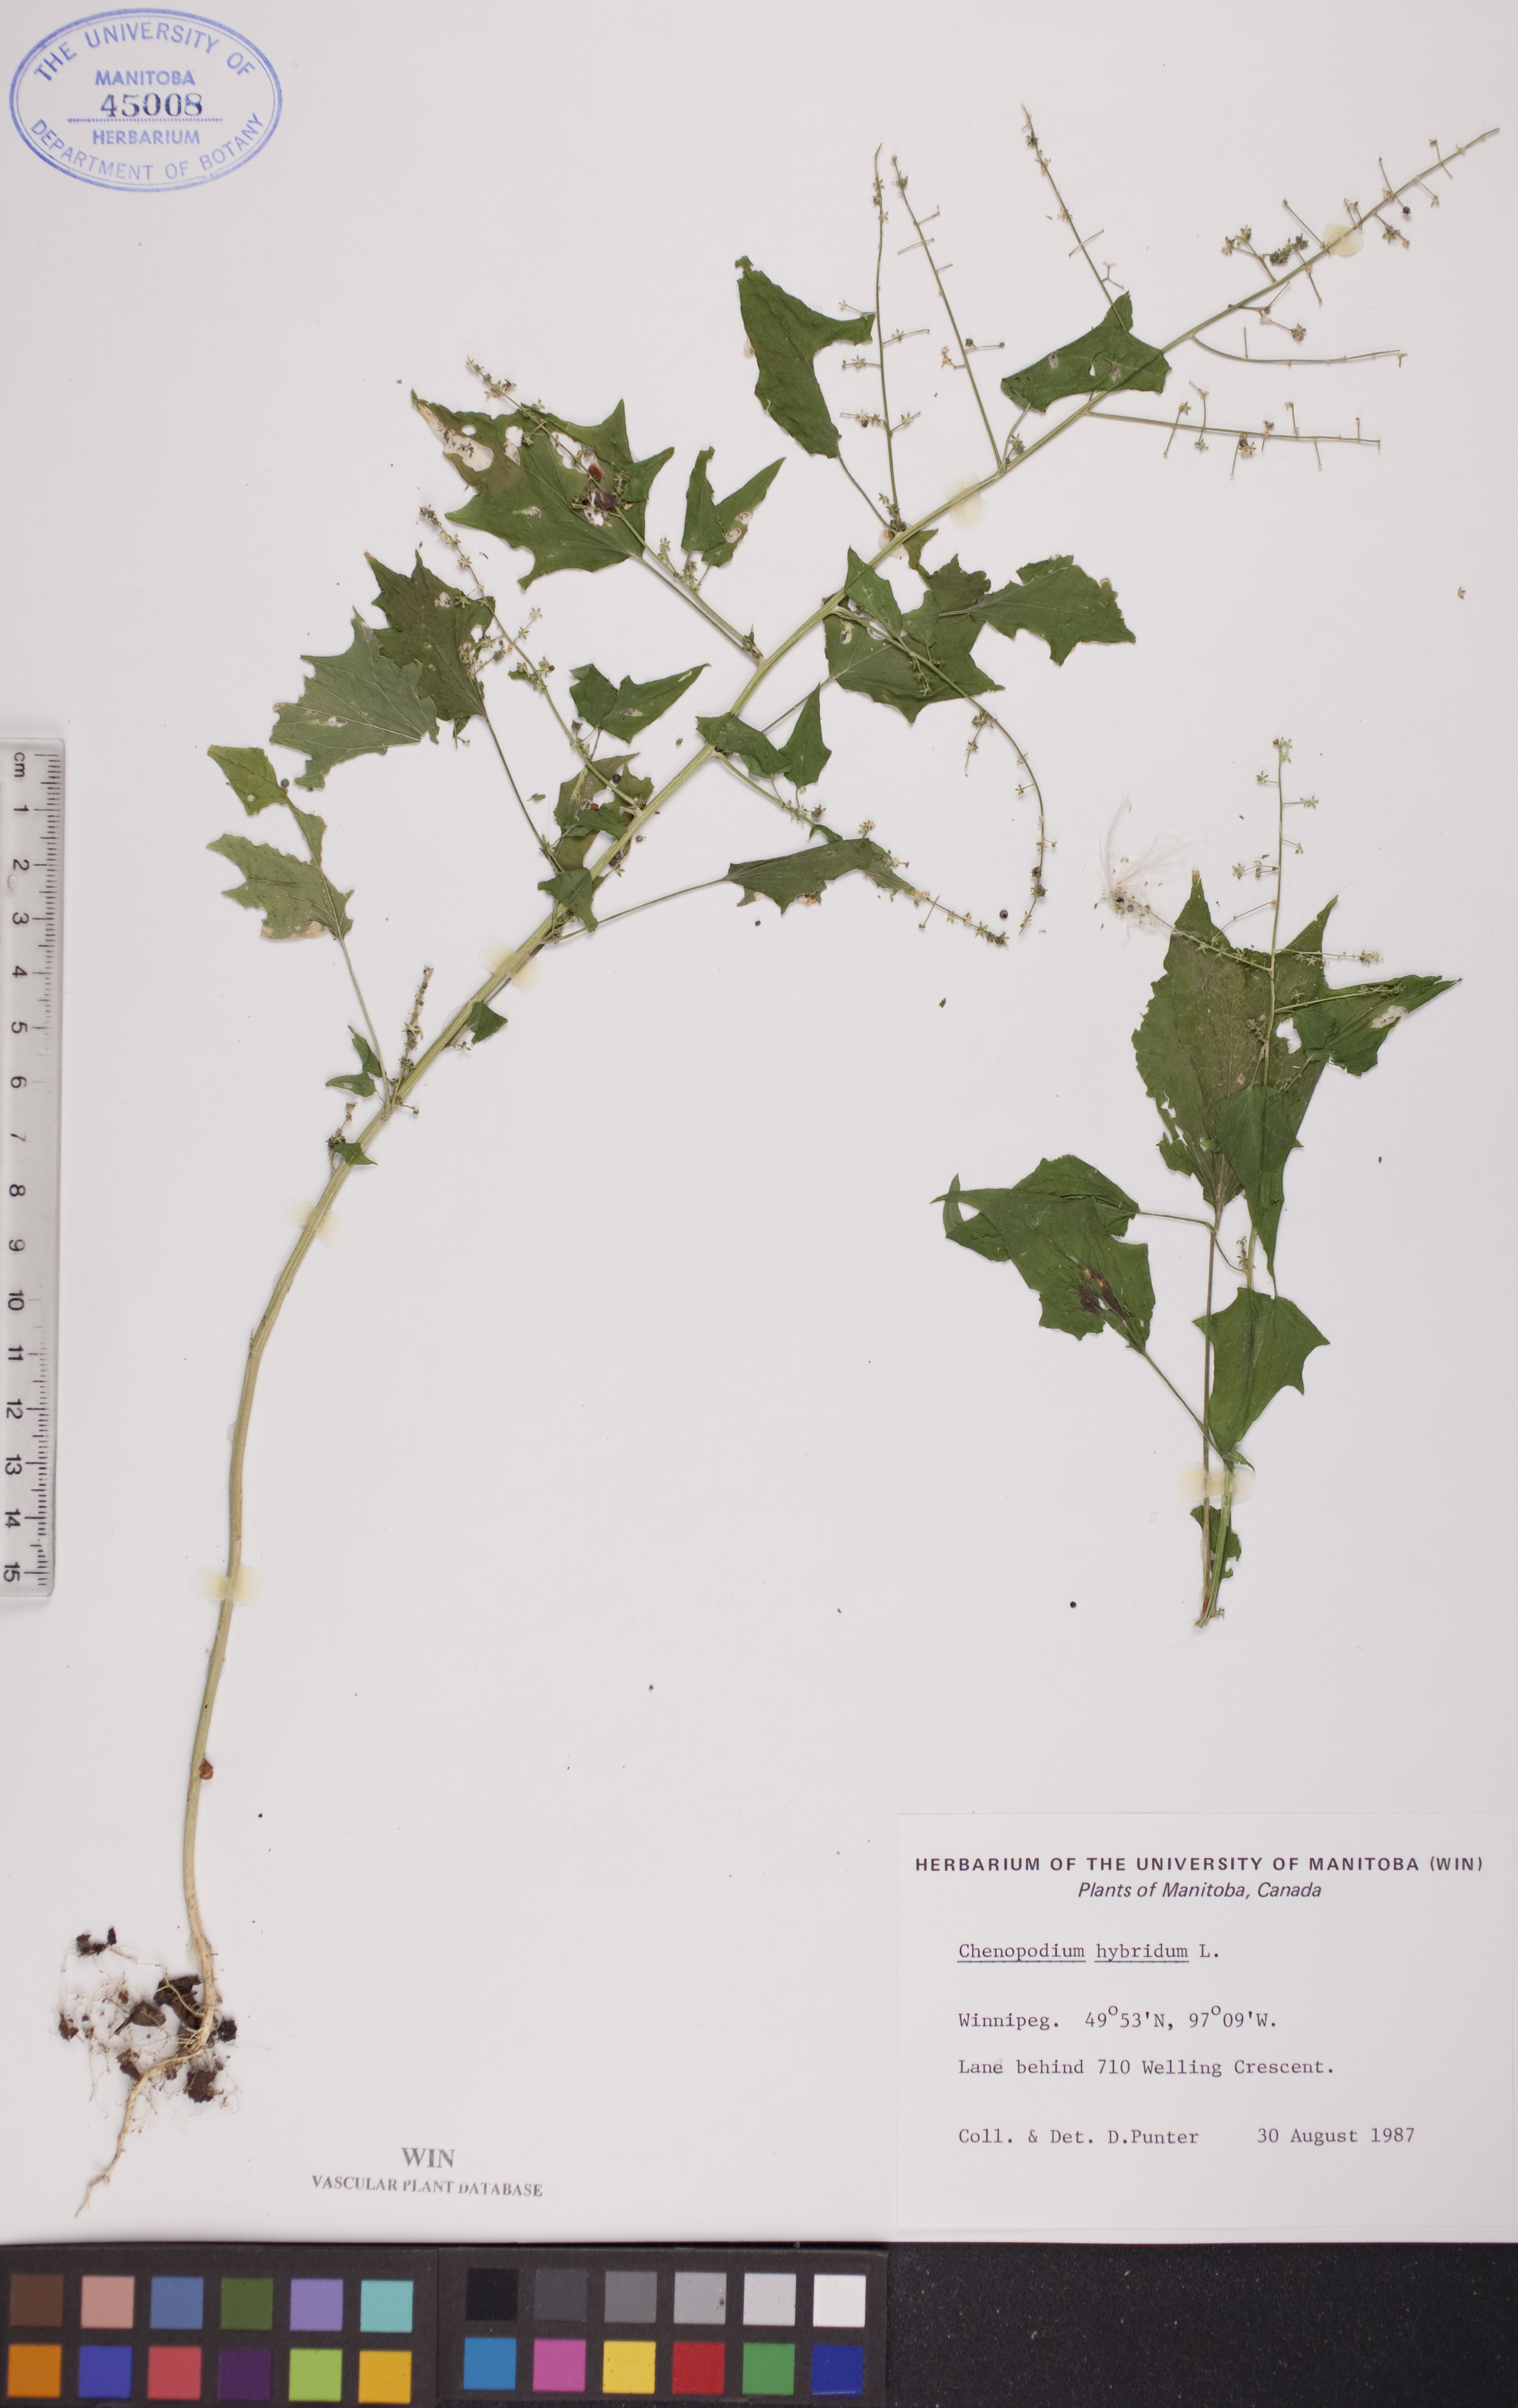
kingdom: Plantae
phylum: Tracheophyta
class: Magnoliopsida
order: Caryophyllales
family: Amaranthaceae
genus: Chenopodiastrum
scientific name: Chenopodiastrum hybridum
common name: Mapleleaf goosefoot
